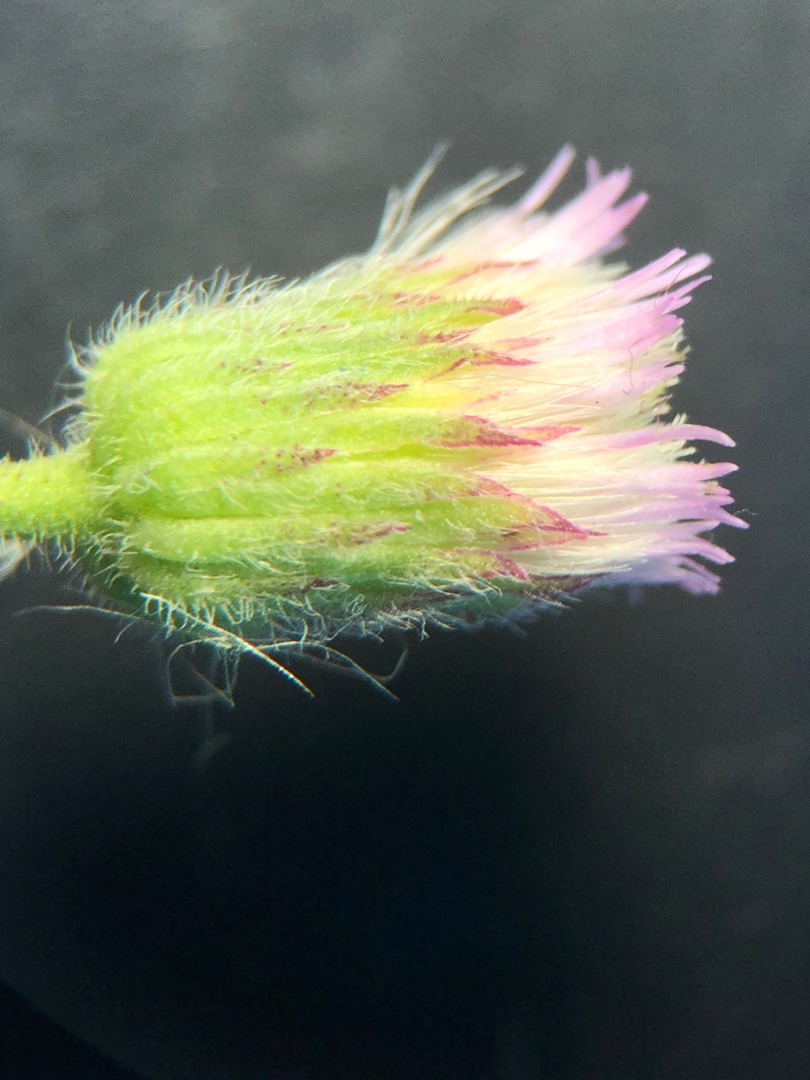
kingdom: Plantae
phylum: Tracheophyta
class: Magnoliopsida
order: Asterales
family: Asteraceae
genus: Erigeron
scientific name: Erigeron muralis
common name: Vreden bakkestjerne
